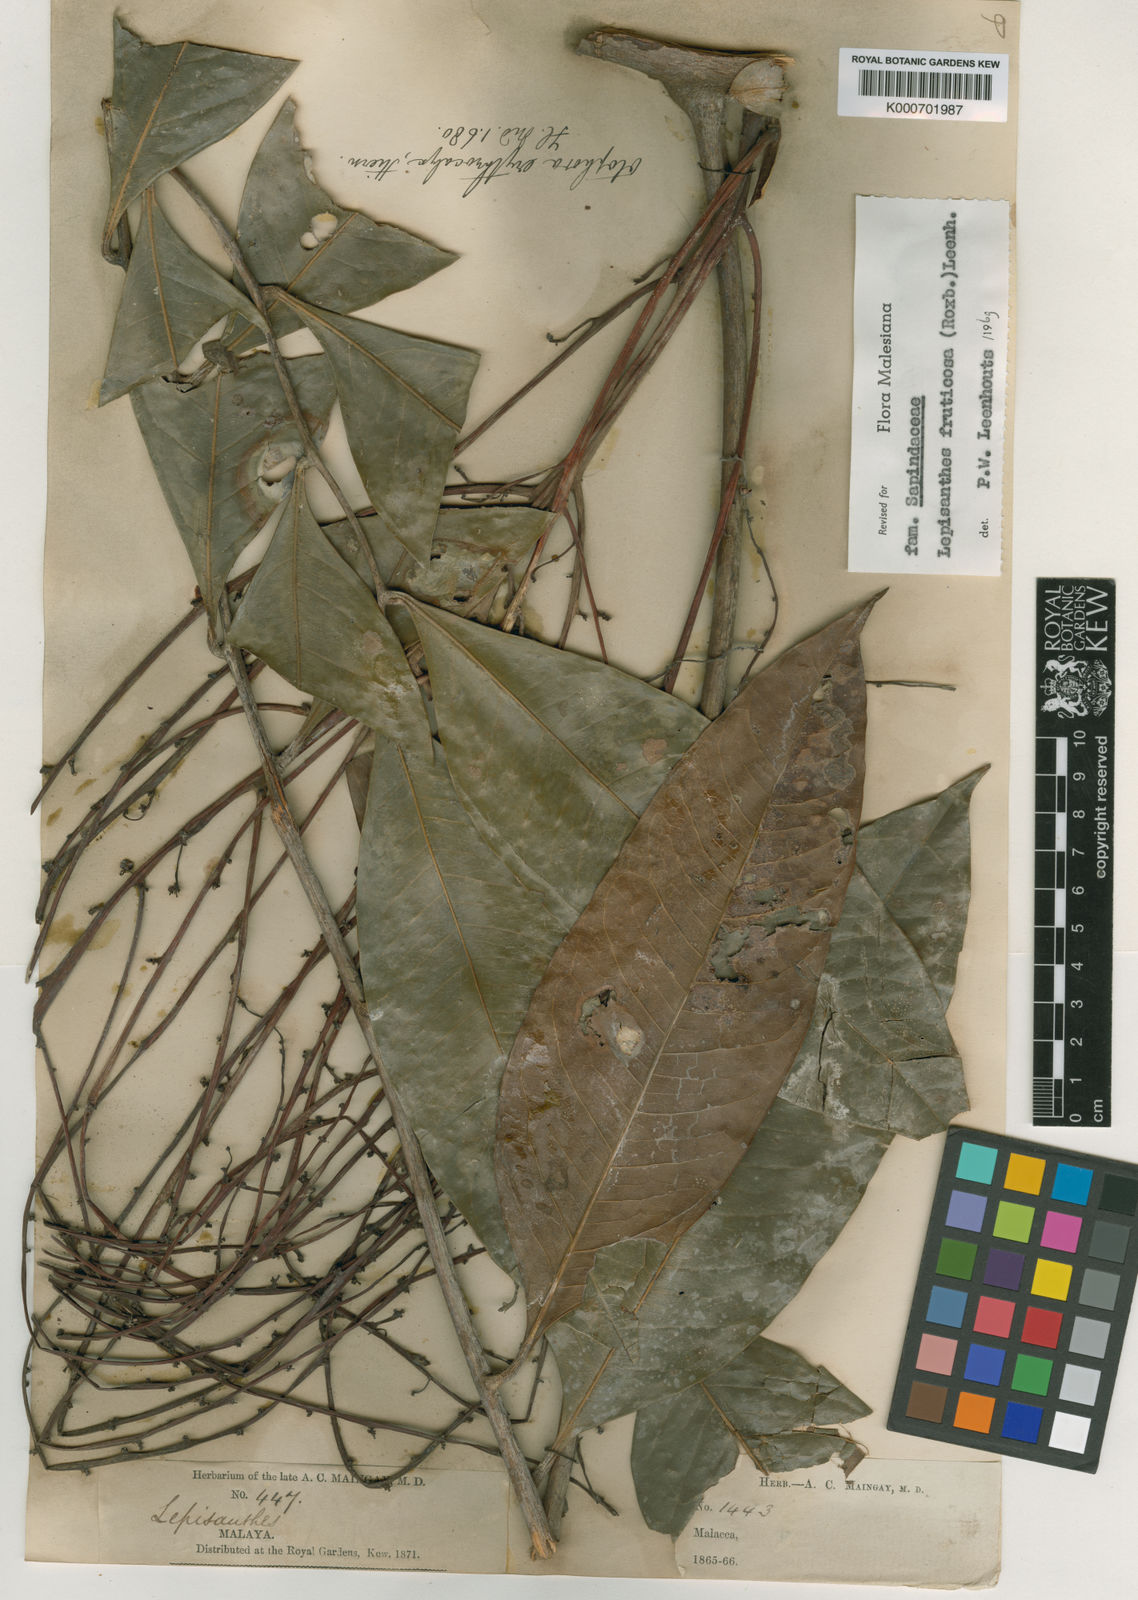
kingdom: Plantae
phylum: Tracheophyta
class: Magnoliopsida
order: Sapindales
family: Sapindaceae
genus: Lepisanthes
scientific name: Lepisanthes fruticosa
